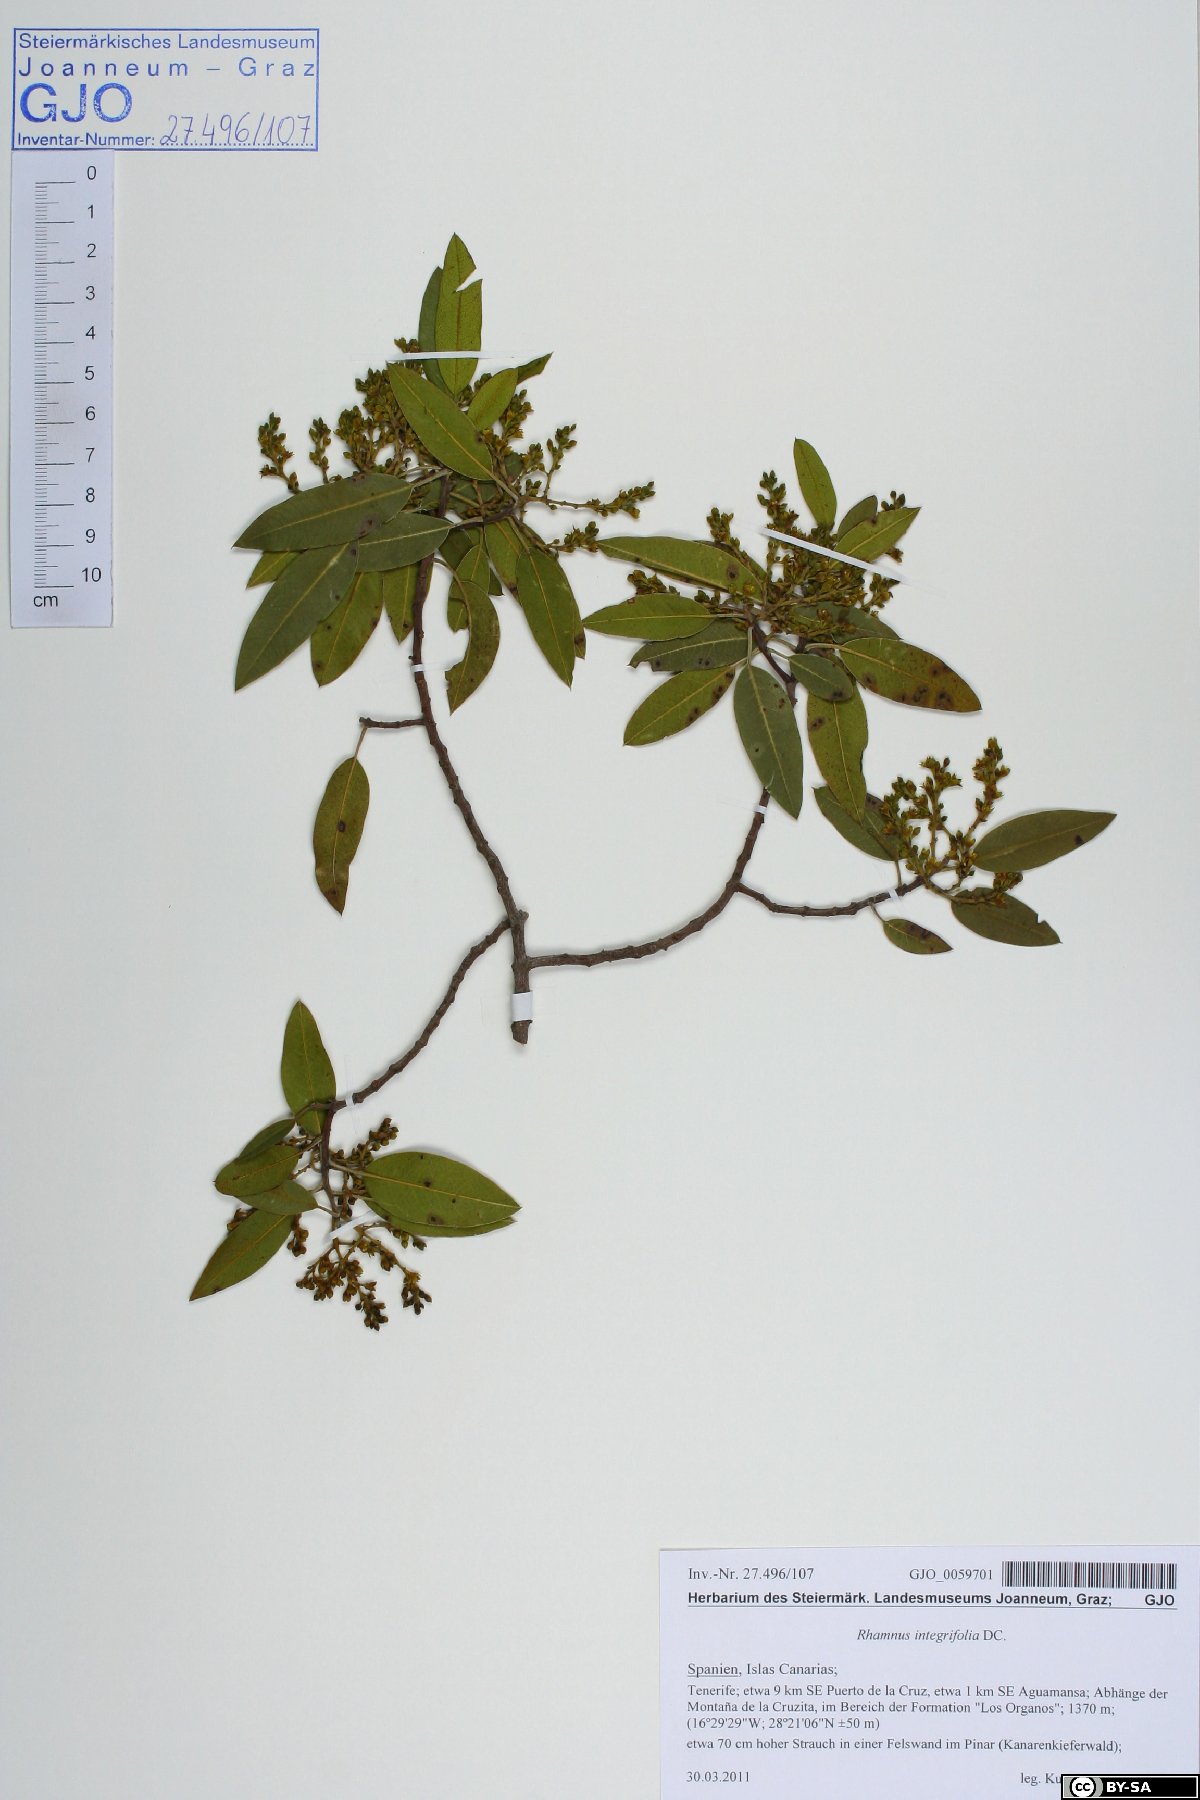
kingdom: Plantae
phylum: Tracheophyta
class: Magnoliopsida
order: Rosales
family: Rhamnaceae
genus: Rhamnus
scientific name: Rhamnus integrifolia
